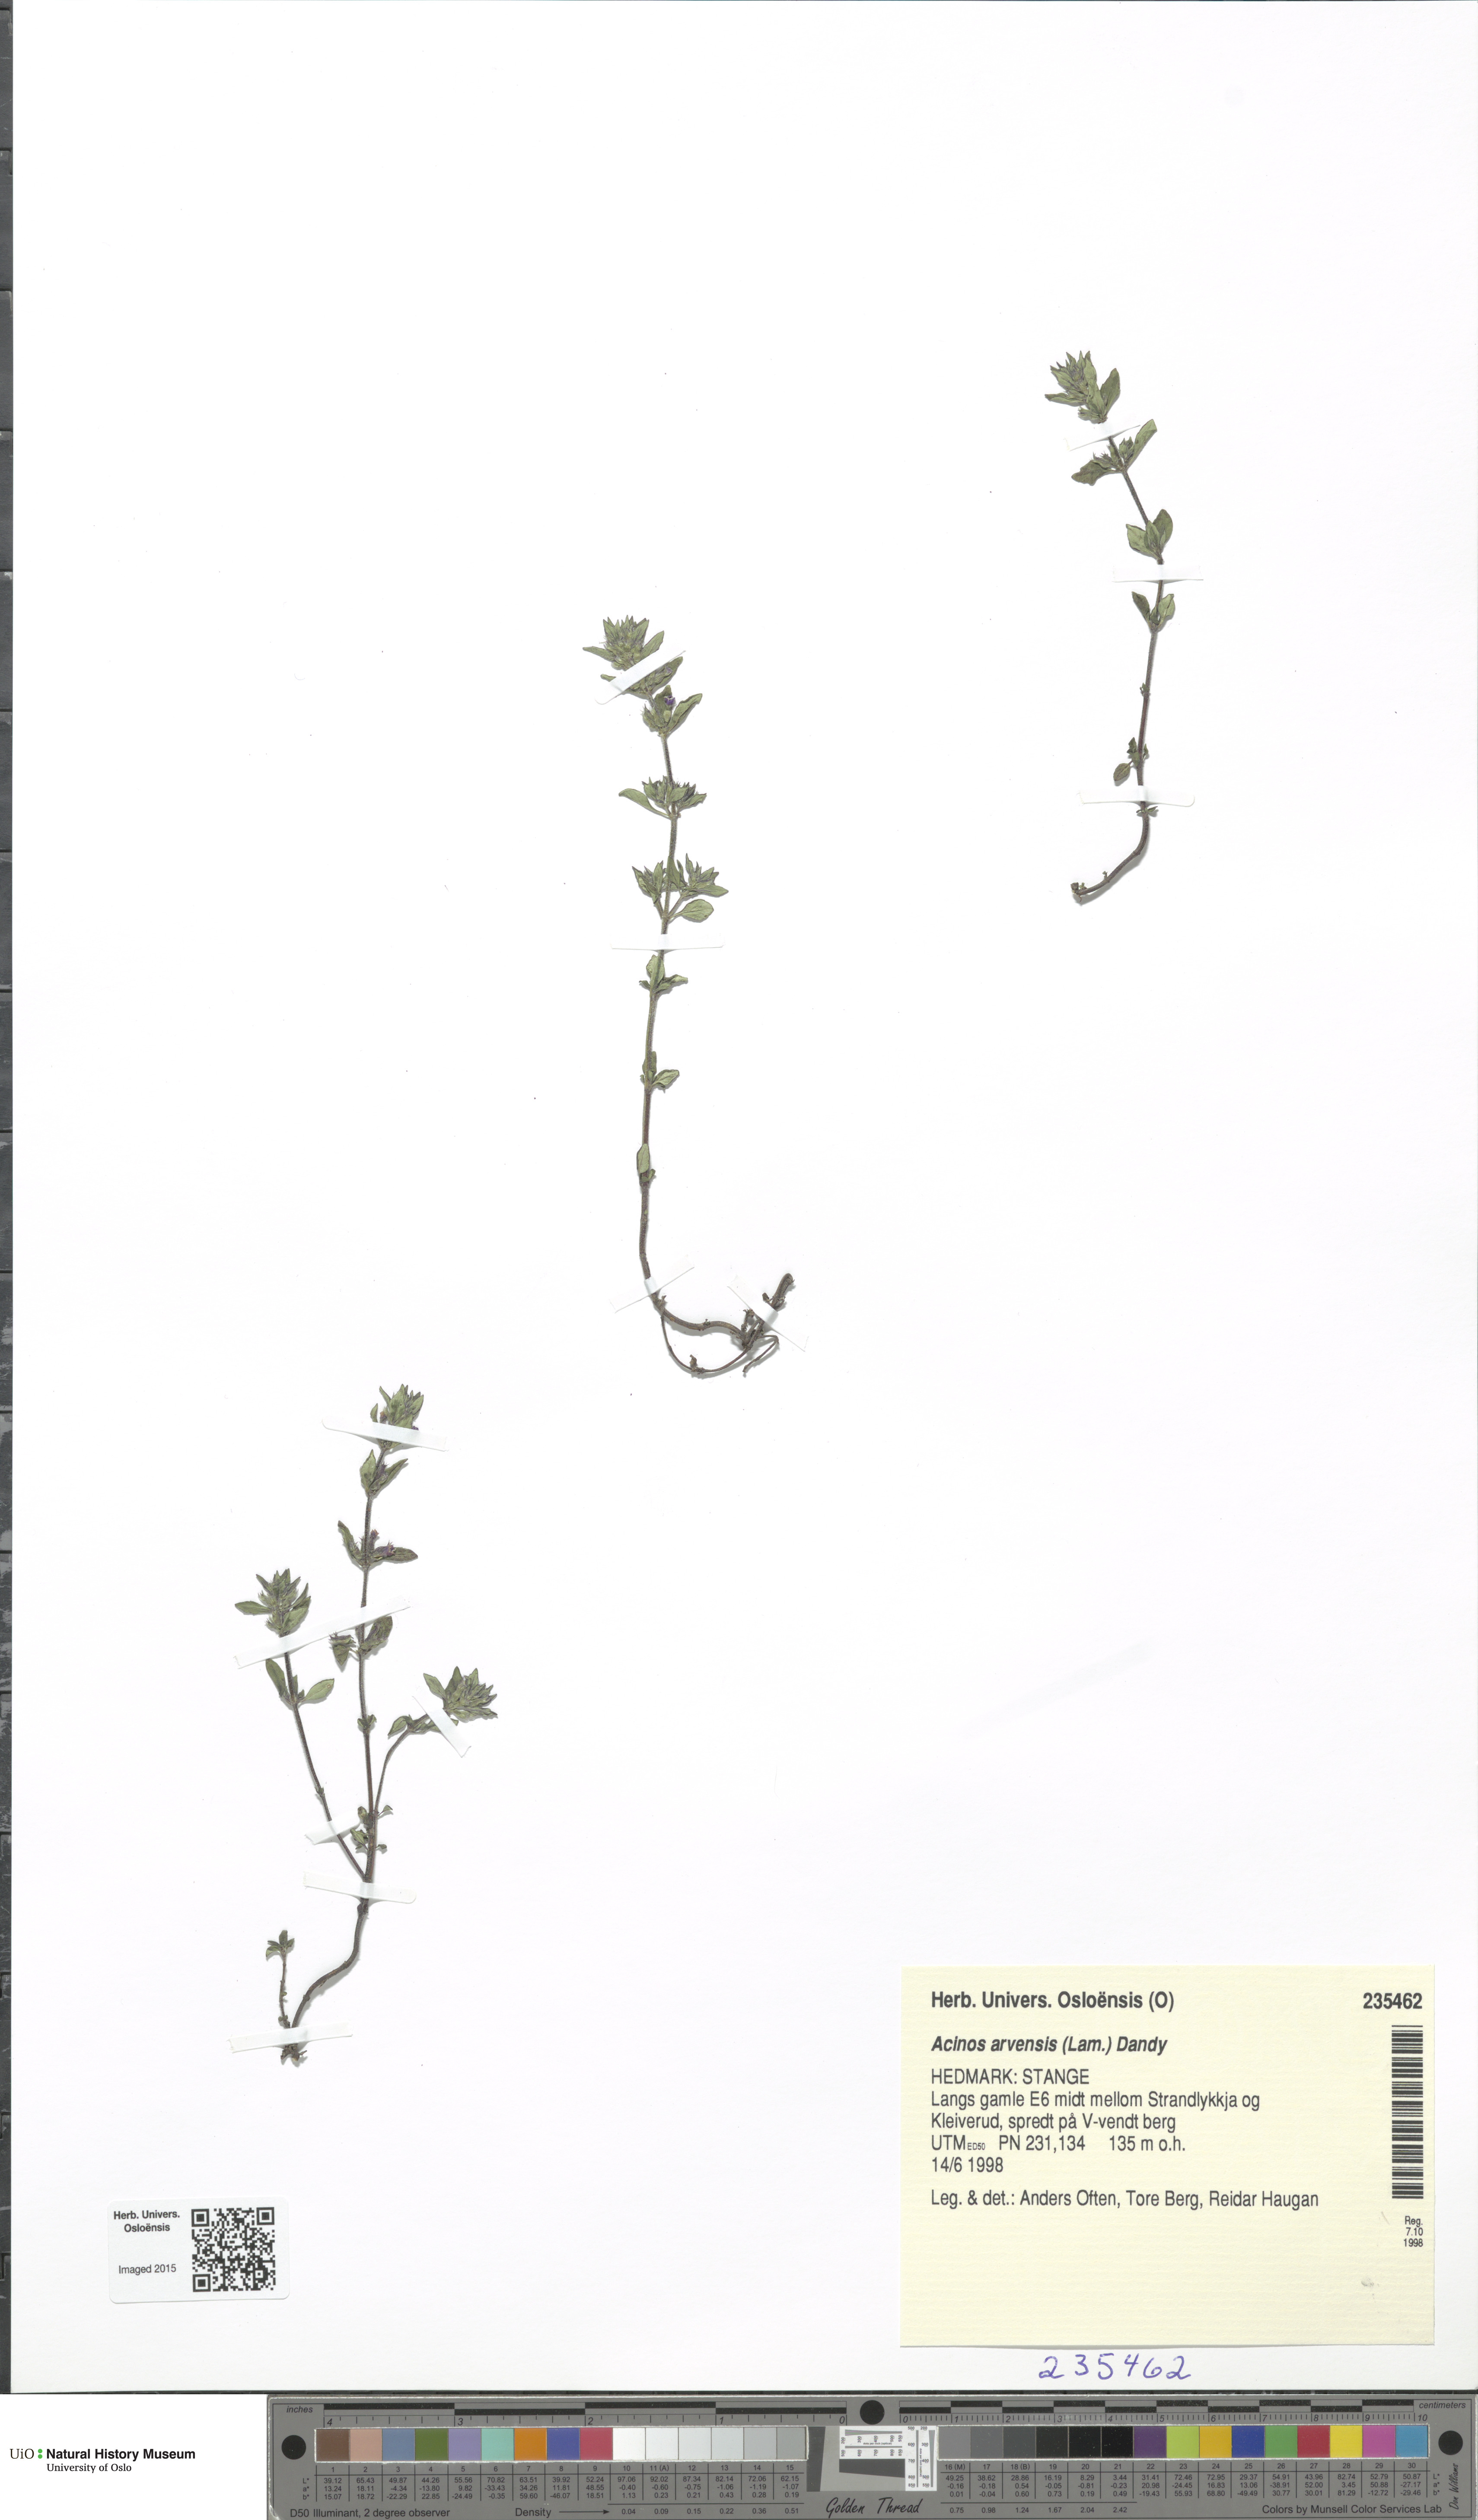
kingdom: Plantae
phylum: Tracheophyta
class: Magnoliopsida
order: Lamiales
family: Lamiaceae
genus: Clinopodium
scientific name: Clinopodium acinos
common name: Basil thyme
